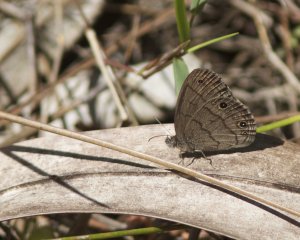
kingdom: Animalia
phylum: Arthropoda
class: Insecta
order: Lepidoptera
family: Nymphalidae
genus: Hermeuptychia
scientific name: Hermeuptychia hermes
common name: Carolina Satyr
